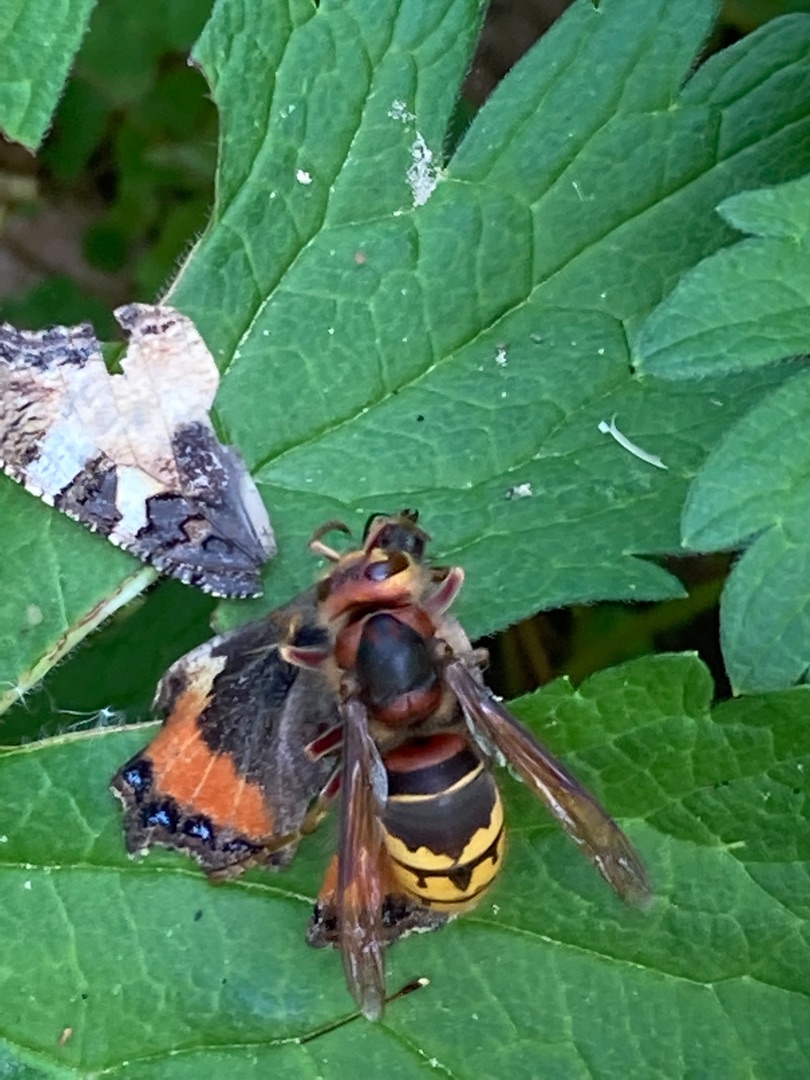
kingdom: Animalia
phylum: Arthropoda
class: Insecta
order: Hymenoptera
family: Vespidae
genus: Vespa
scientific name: Vespa crabro
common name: Stor gedehams
